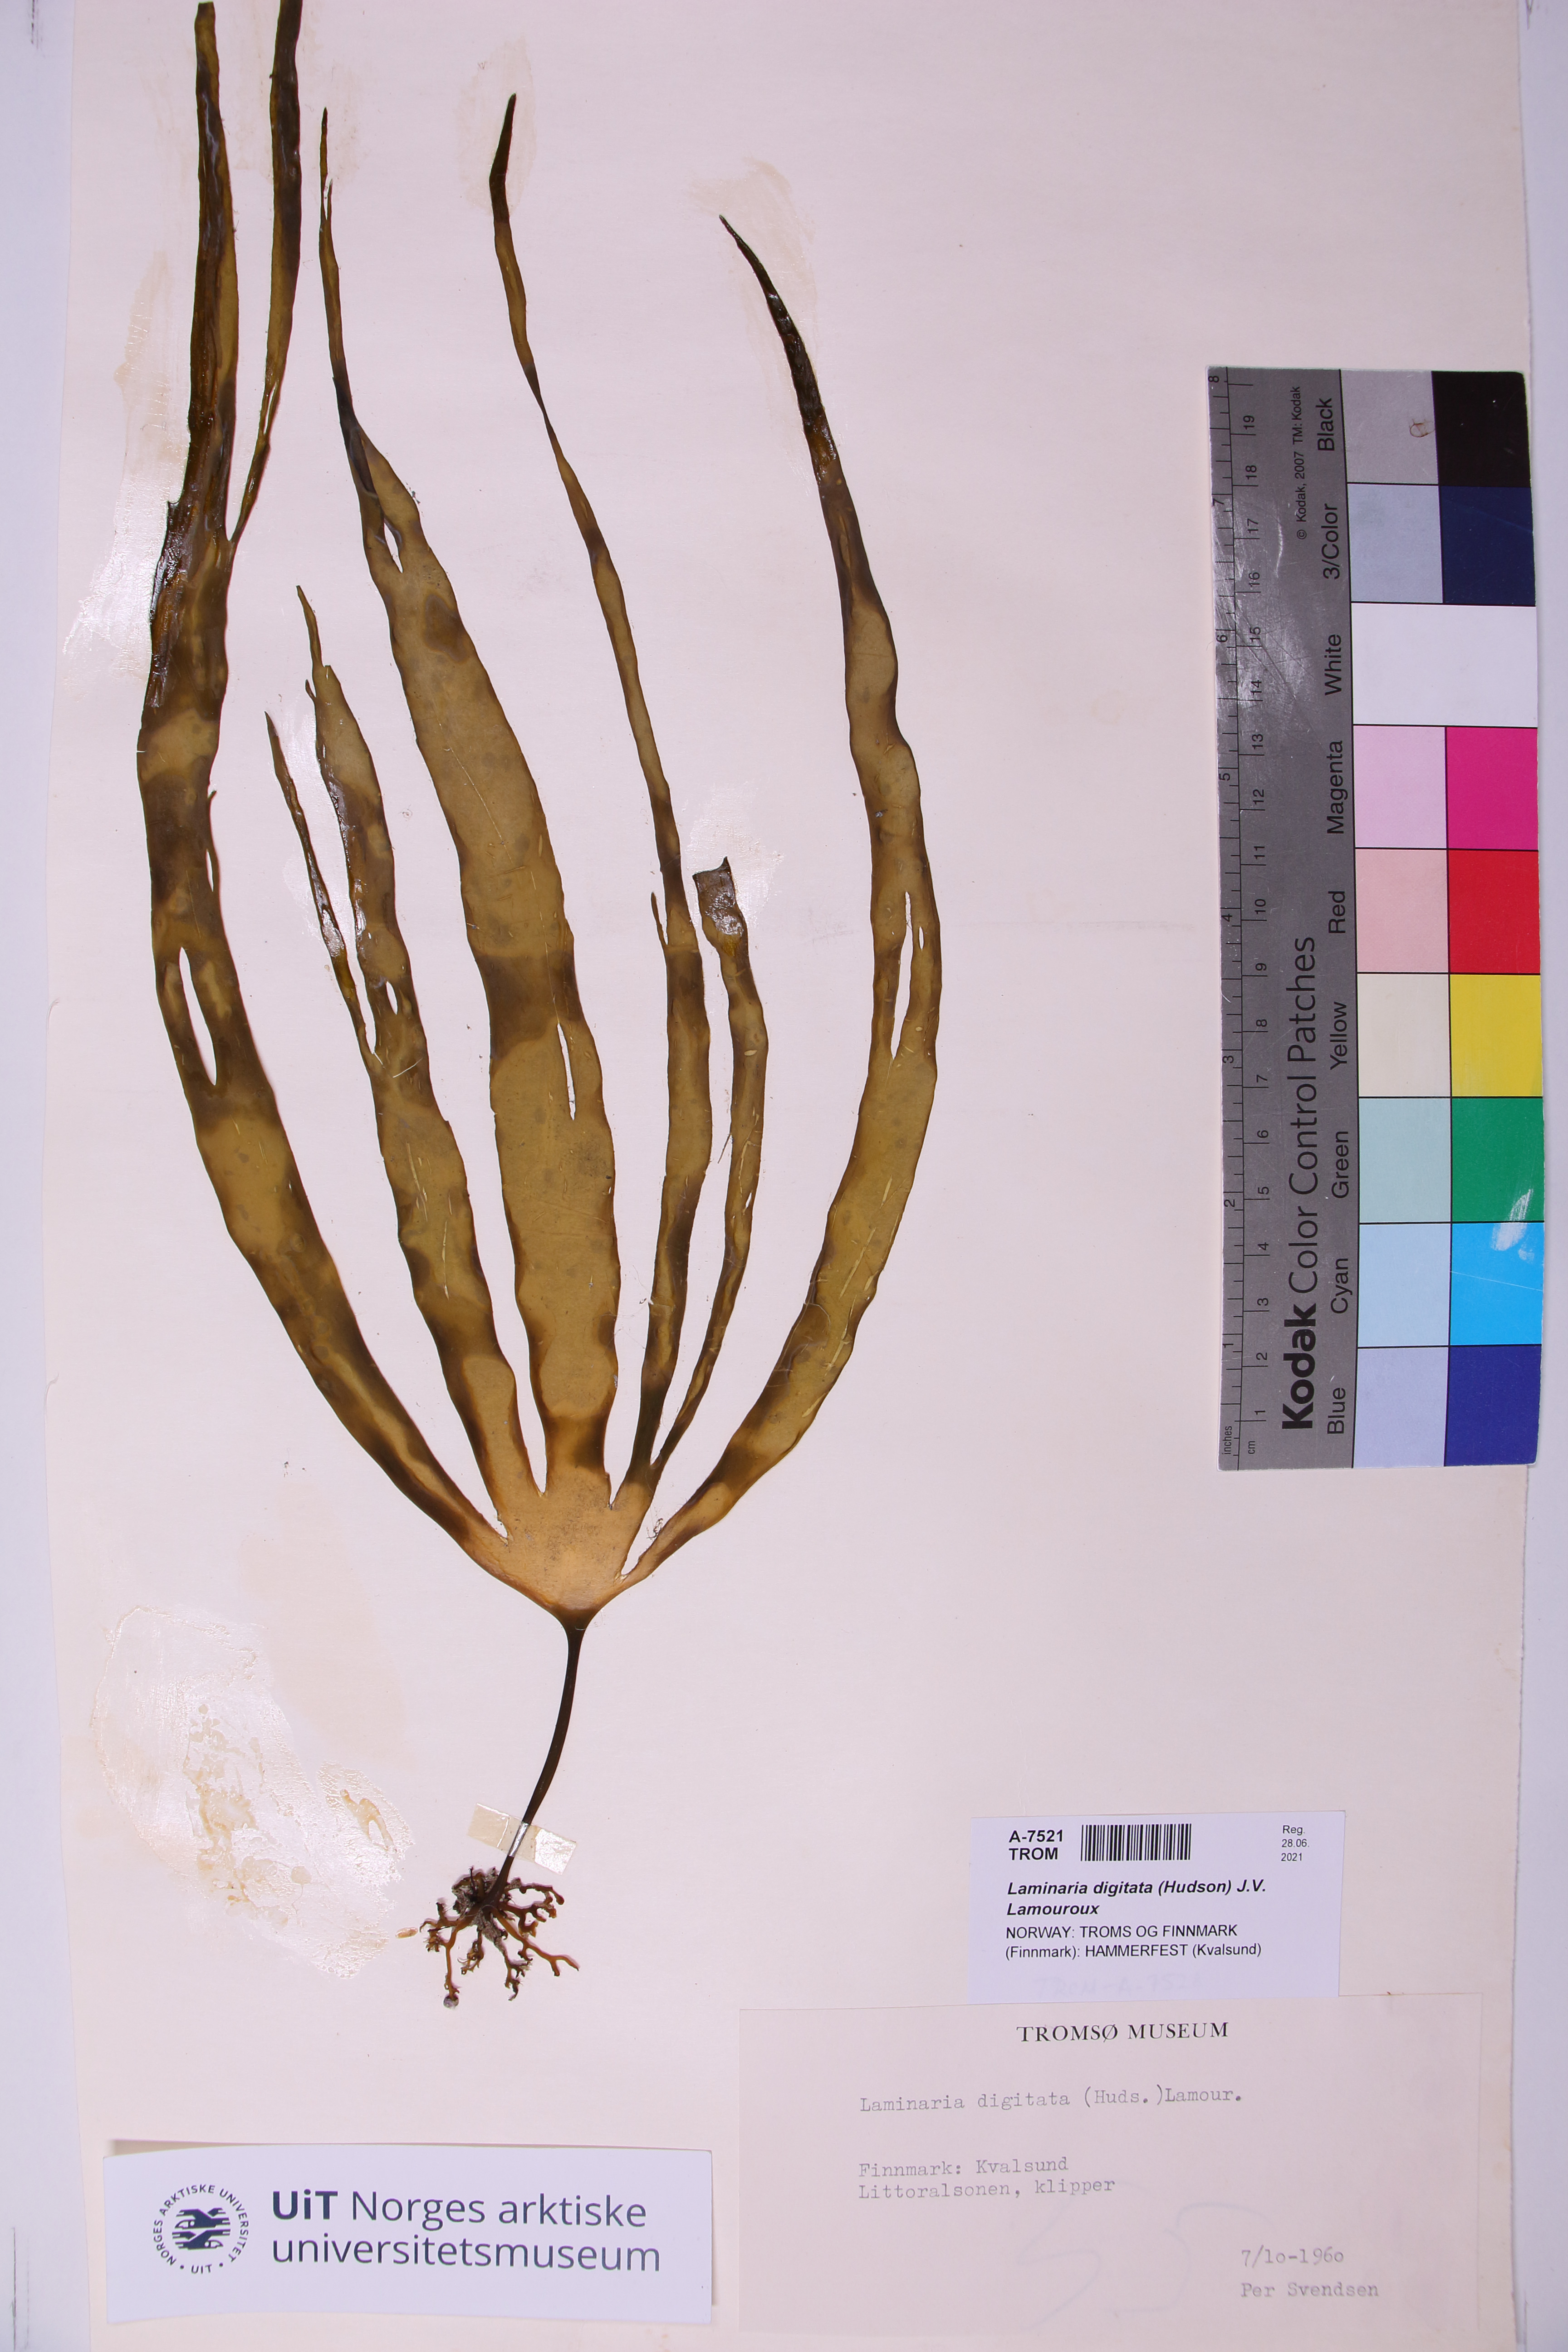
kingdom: Chromista
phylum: Ochrophyta
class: Phaeophyceae
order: Laminariales
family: Laminariaceae
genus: Laminaria
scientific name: Laminaria digitata
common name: Oarweed
